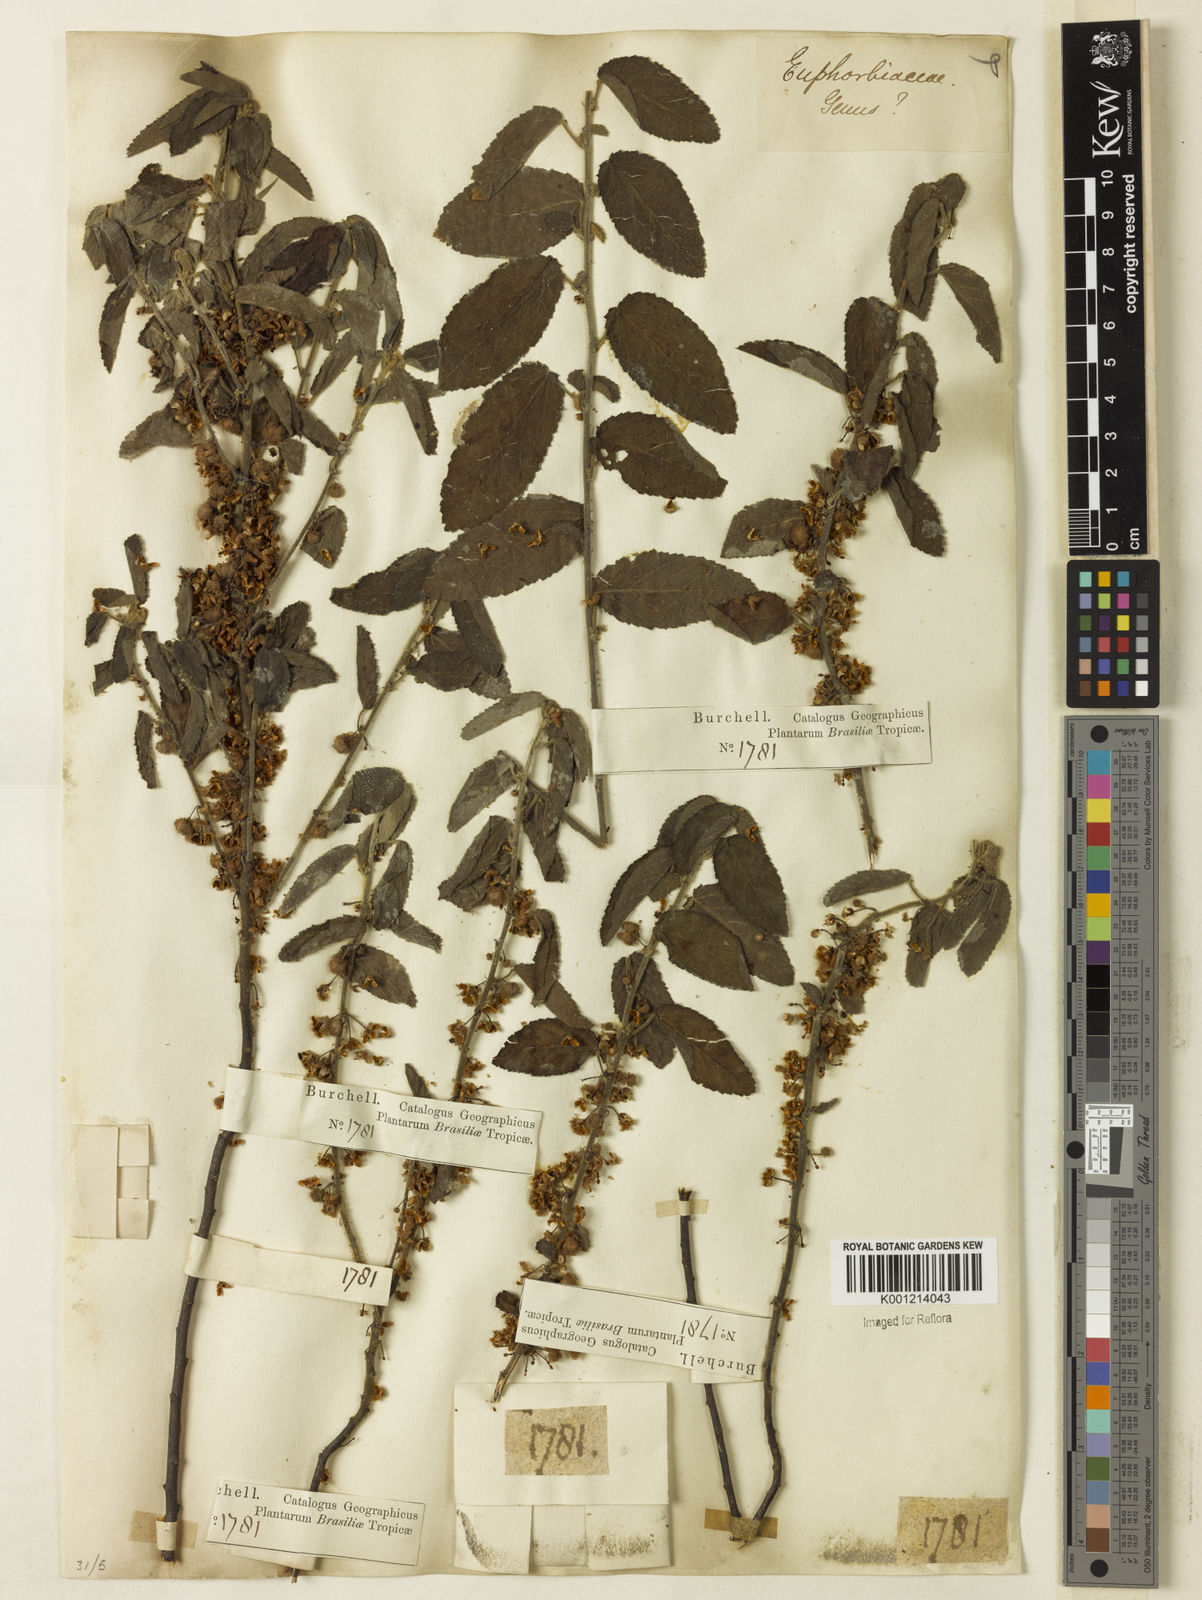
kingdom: Plantae
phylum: Tracheophyta
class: Magnoliopsida
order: Malvales
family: Malvaceae
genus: Ayenia
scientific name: Ayenia tomentosa
